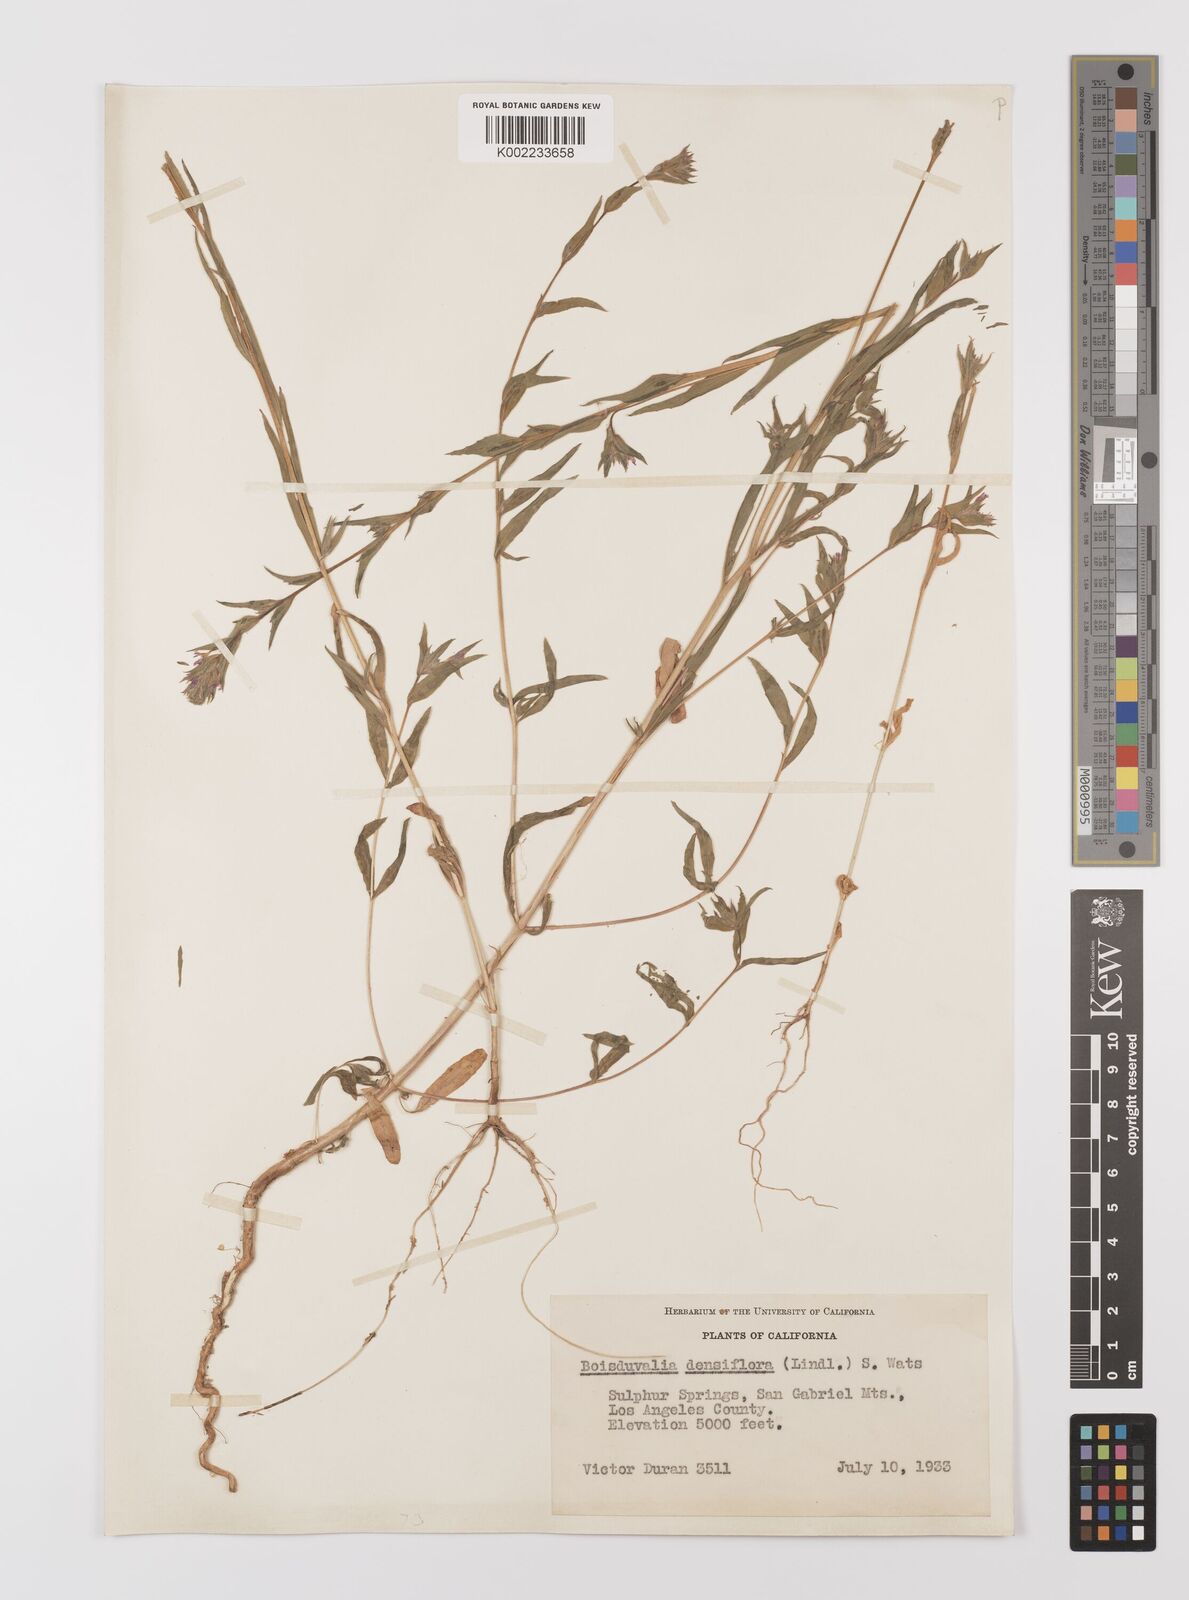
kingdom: Plantae
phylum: Tracheophyta
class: Magnoliopsida
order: Myrtales
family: Onagraceae
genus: Epilobium
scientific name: Epilobium densiflorum
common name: Dense spike-primrose
